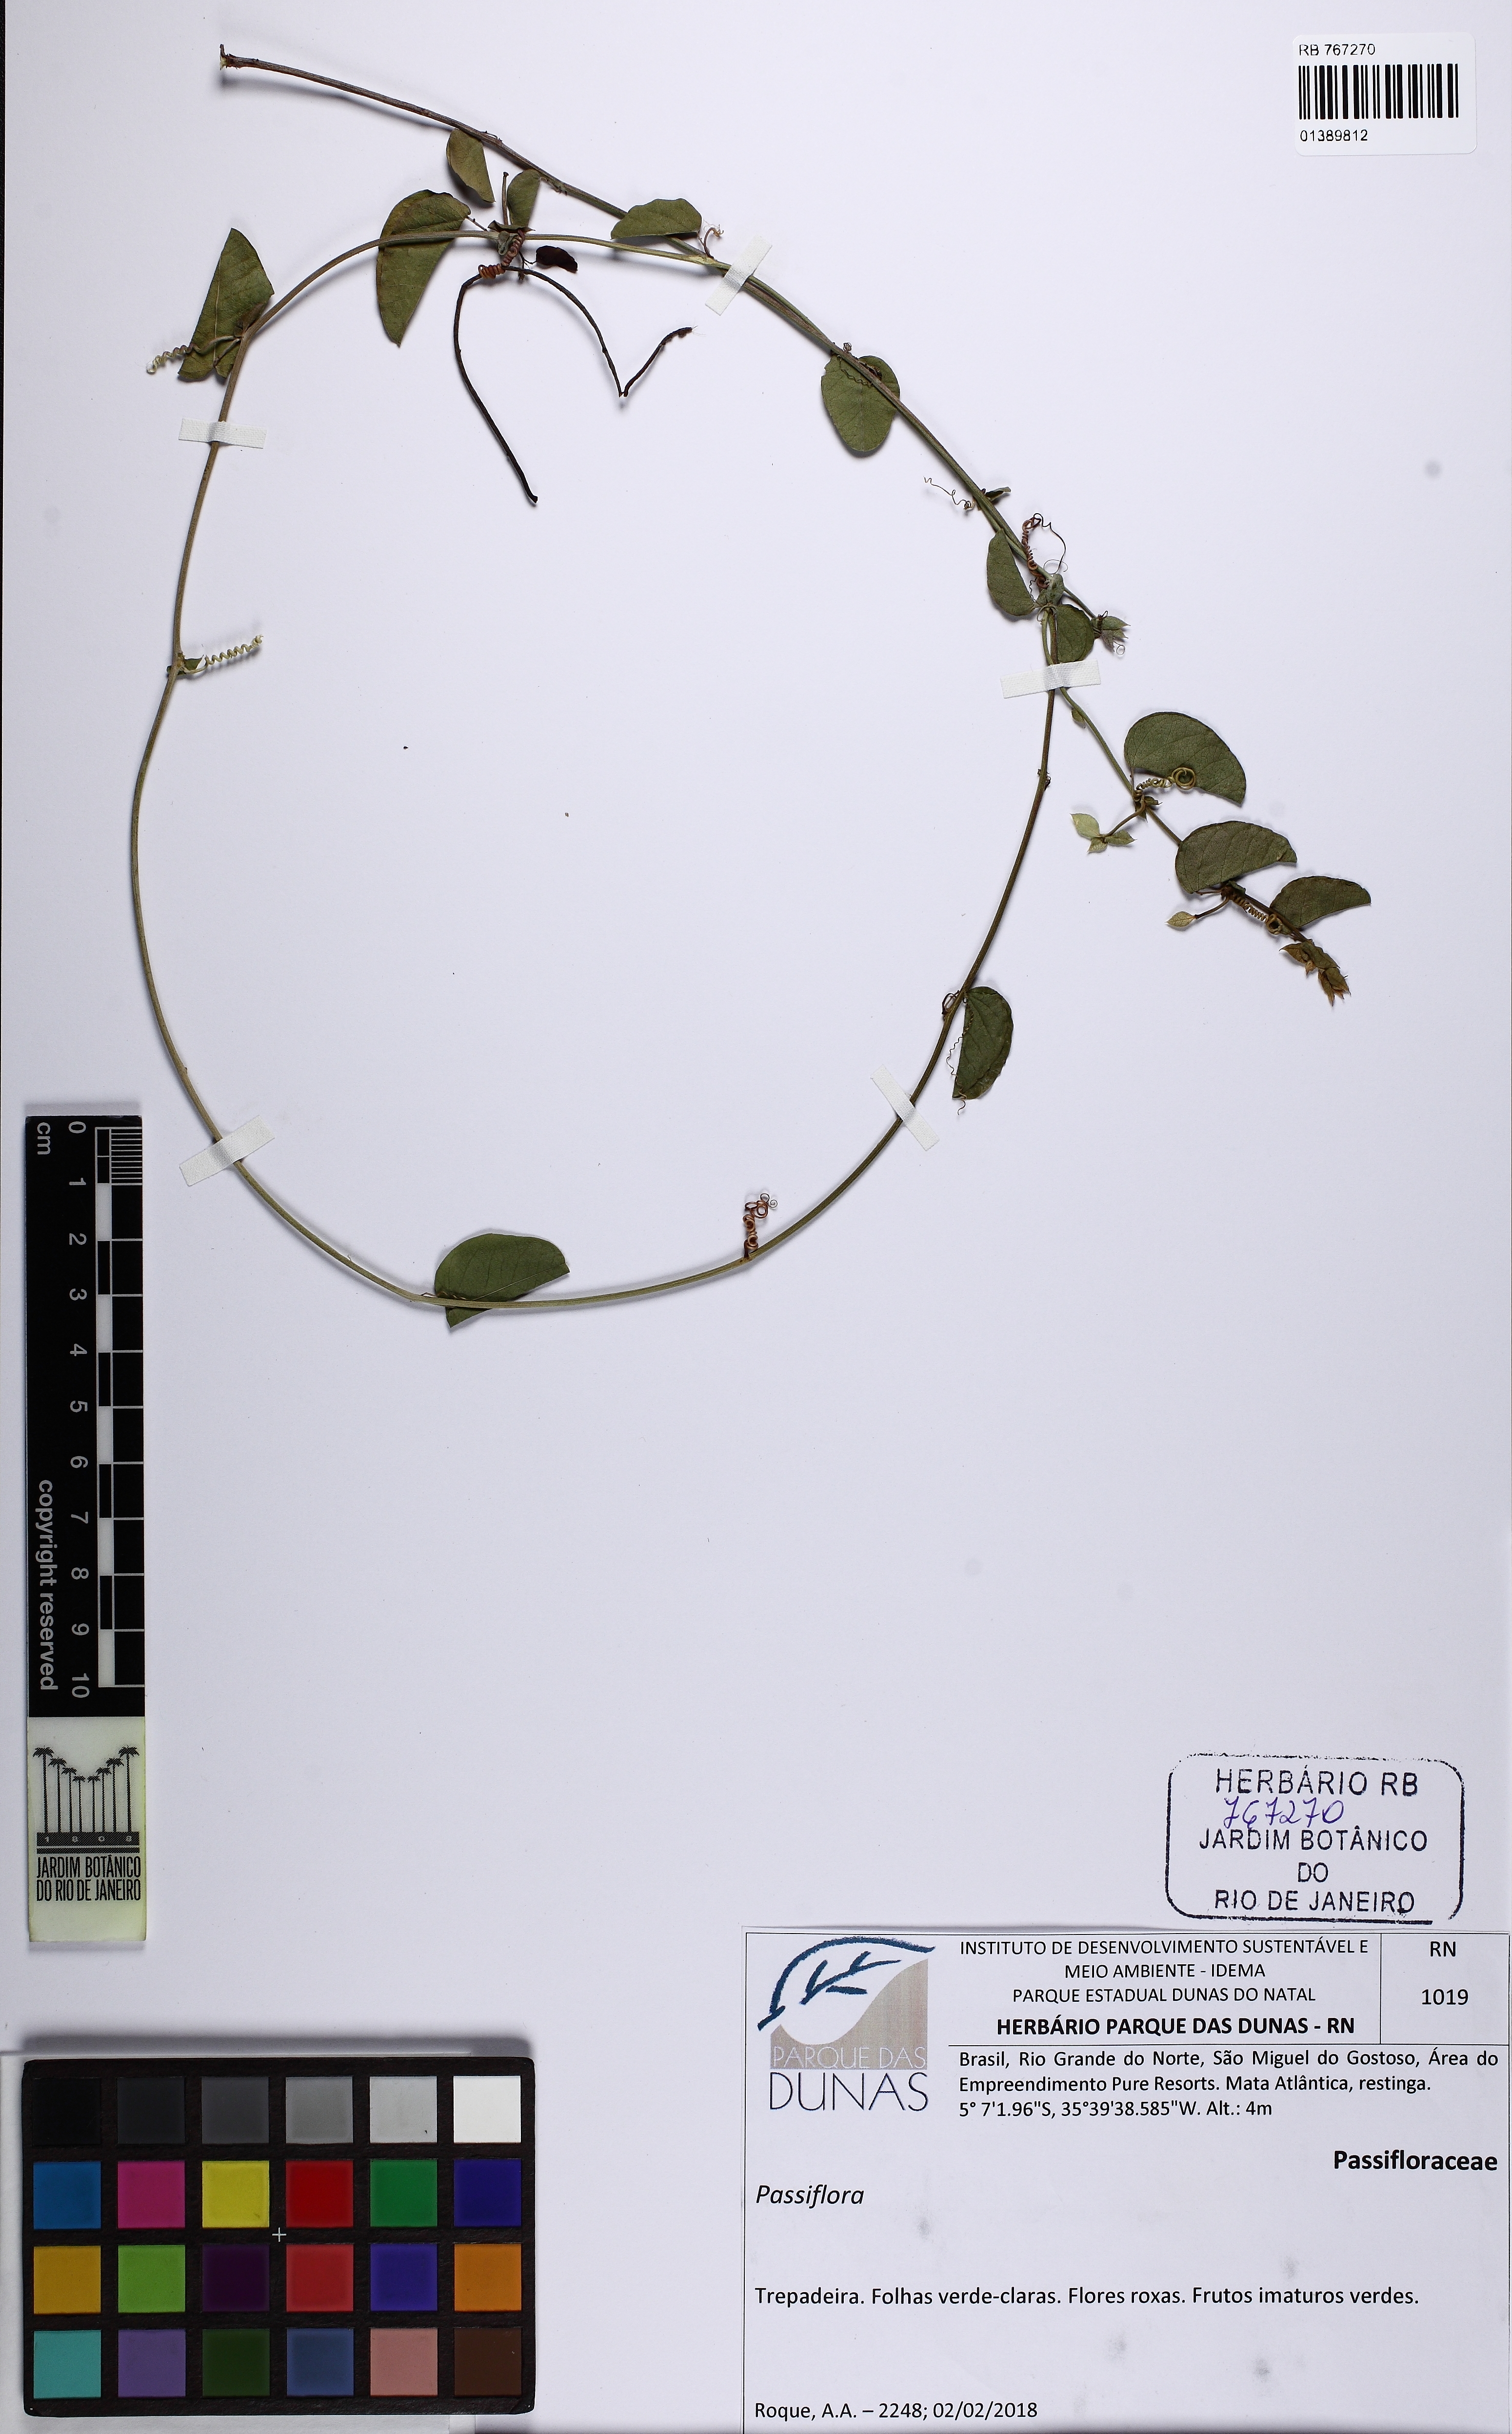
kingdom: Plantae
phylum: Tracheophyta
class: Magnoliopsida
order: Malpighiales
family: Passifloraceae
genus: Passiflora
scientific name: Passiflora
